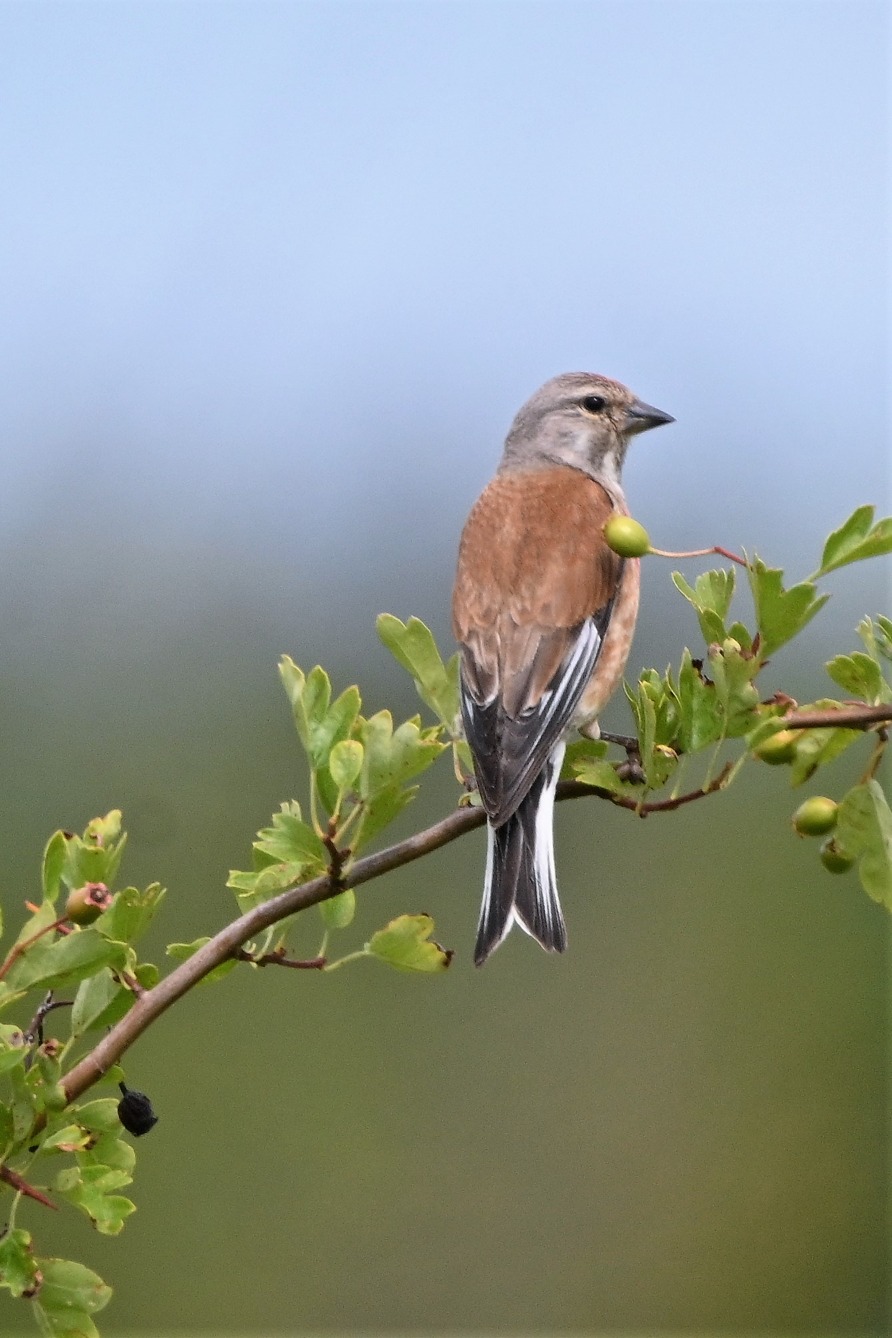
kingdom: Animalia
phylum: Chordata
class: Aves
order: Passeriformes
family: Fringillidae
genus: Linaria
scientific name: Linaria cannabina
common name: Tornirisk
